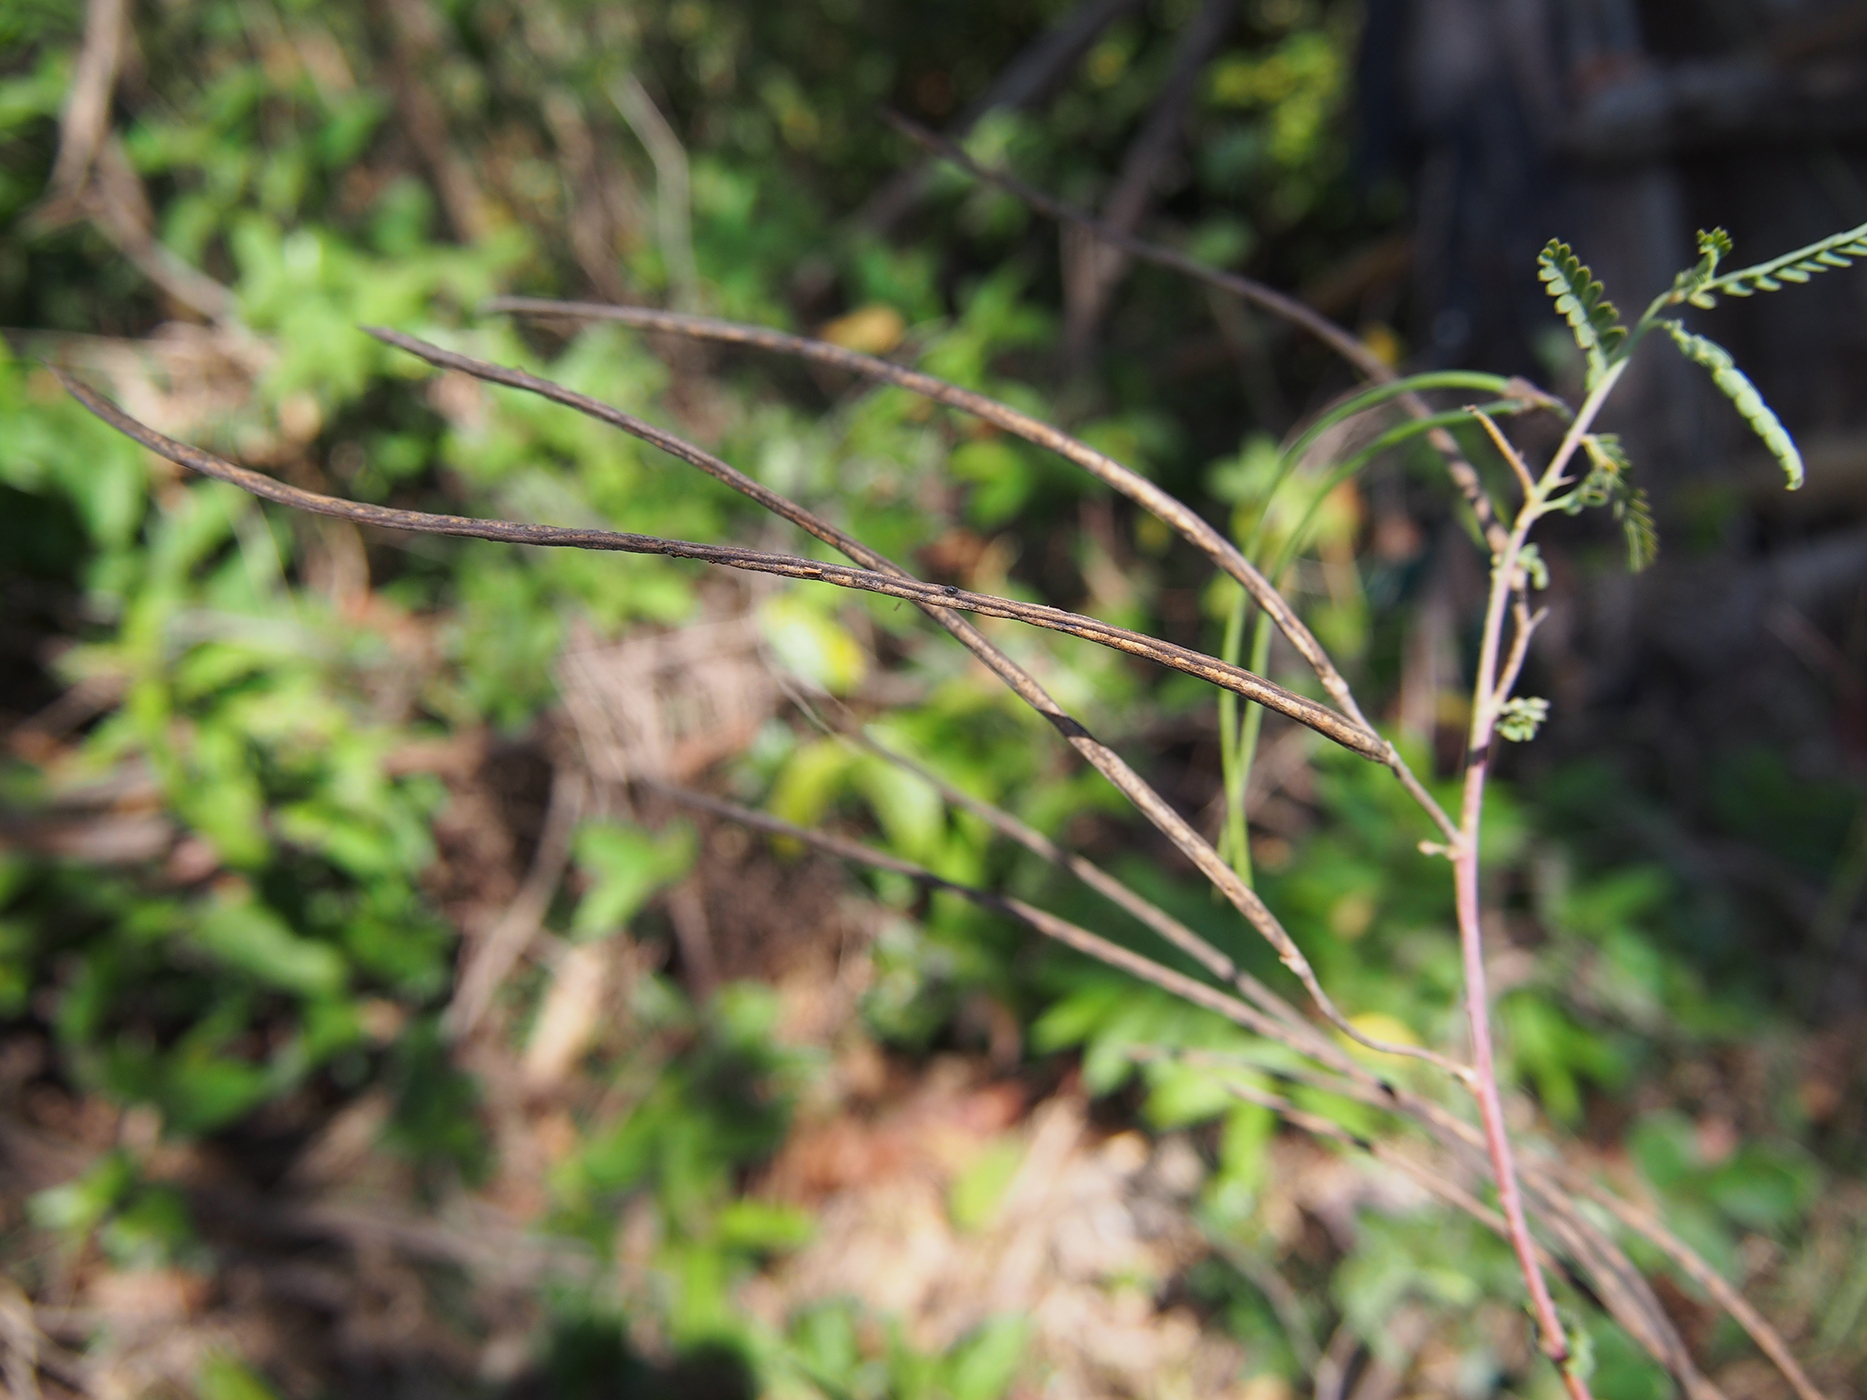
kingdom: Plantae
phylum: Tracheophyta
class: Magnoliopsida
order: Fabales
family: Fabaceae
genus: Sesbania
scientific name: Sesbania bispinosa
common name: Sesbania pea
